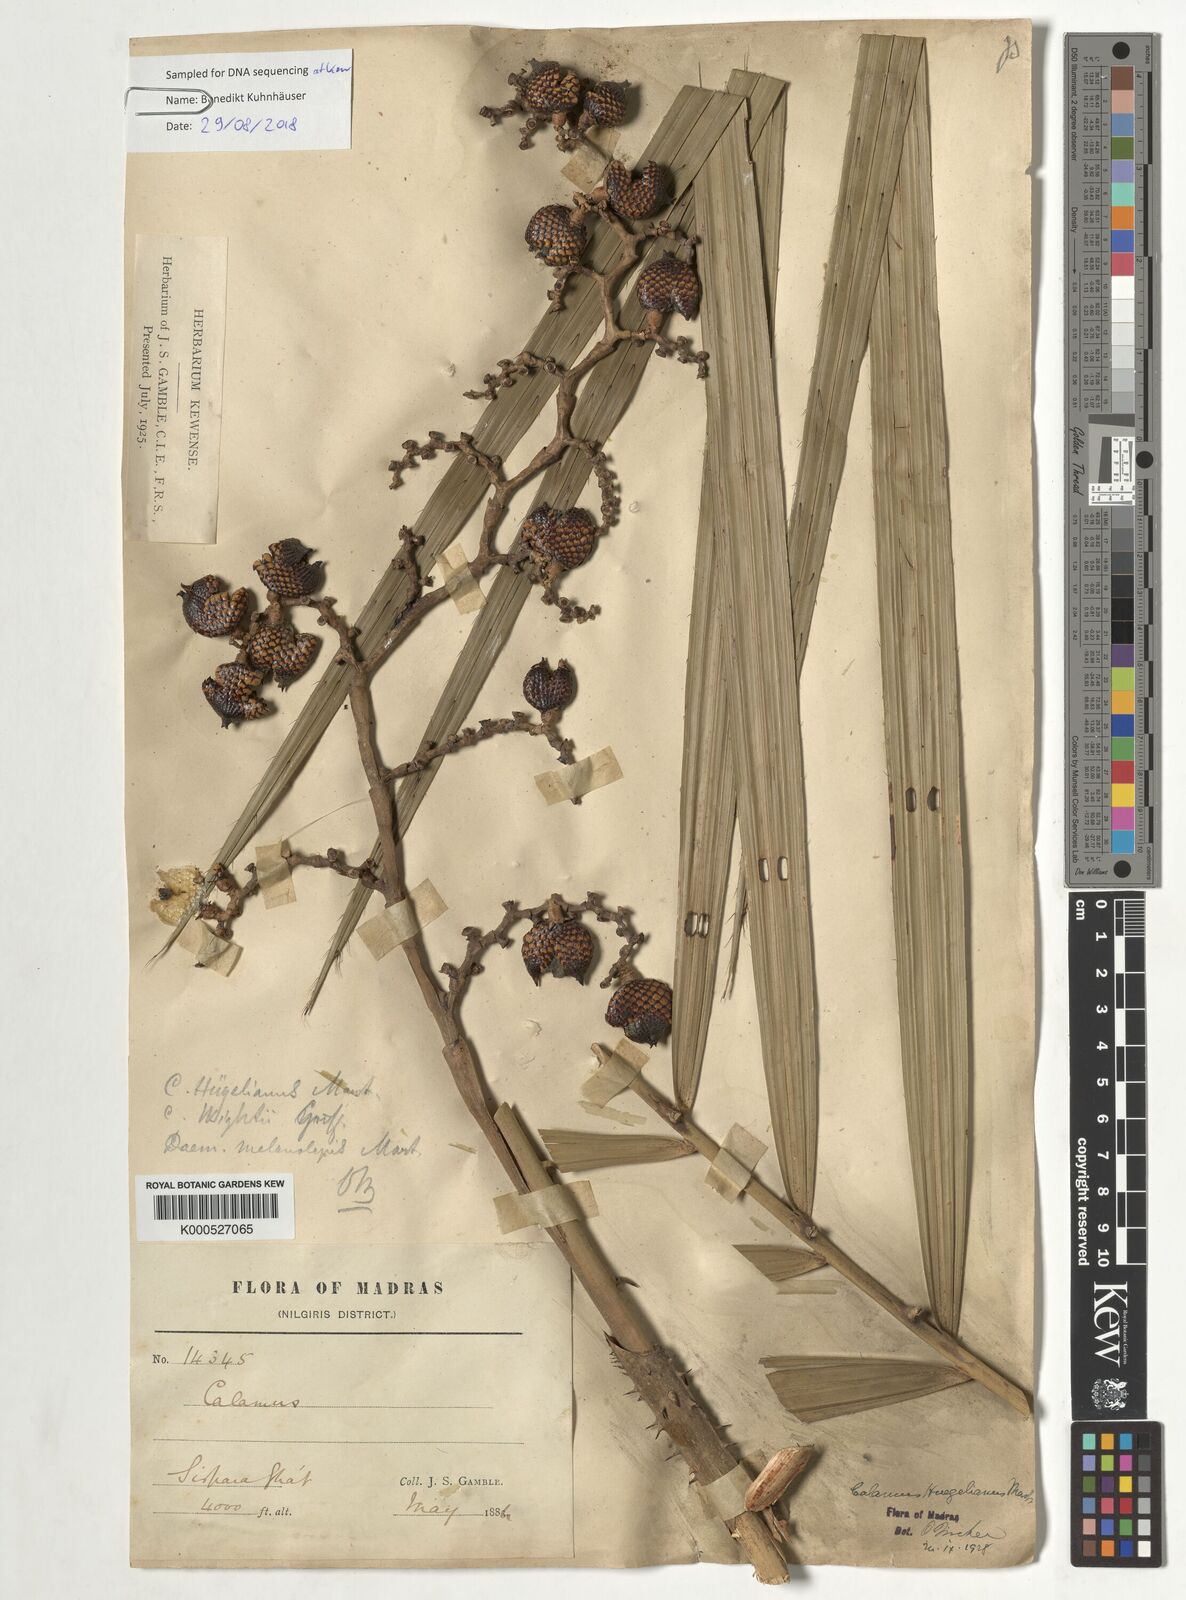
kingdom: Plantae
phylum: Tracheophyta
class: Liliopsida
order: Arecales
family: Arecaceae
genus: Calamus
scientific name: Calamus wightii
